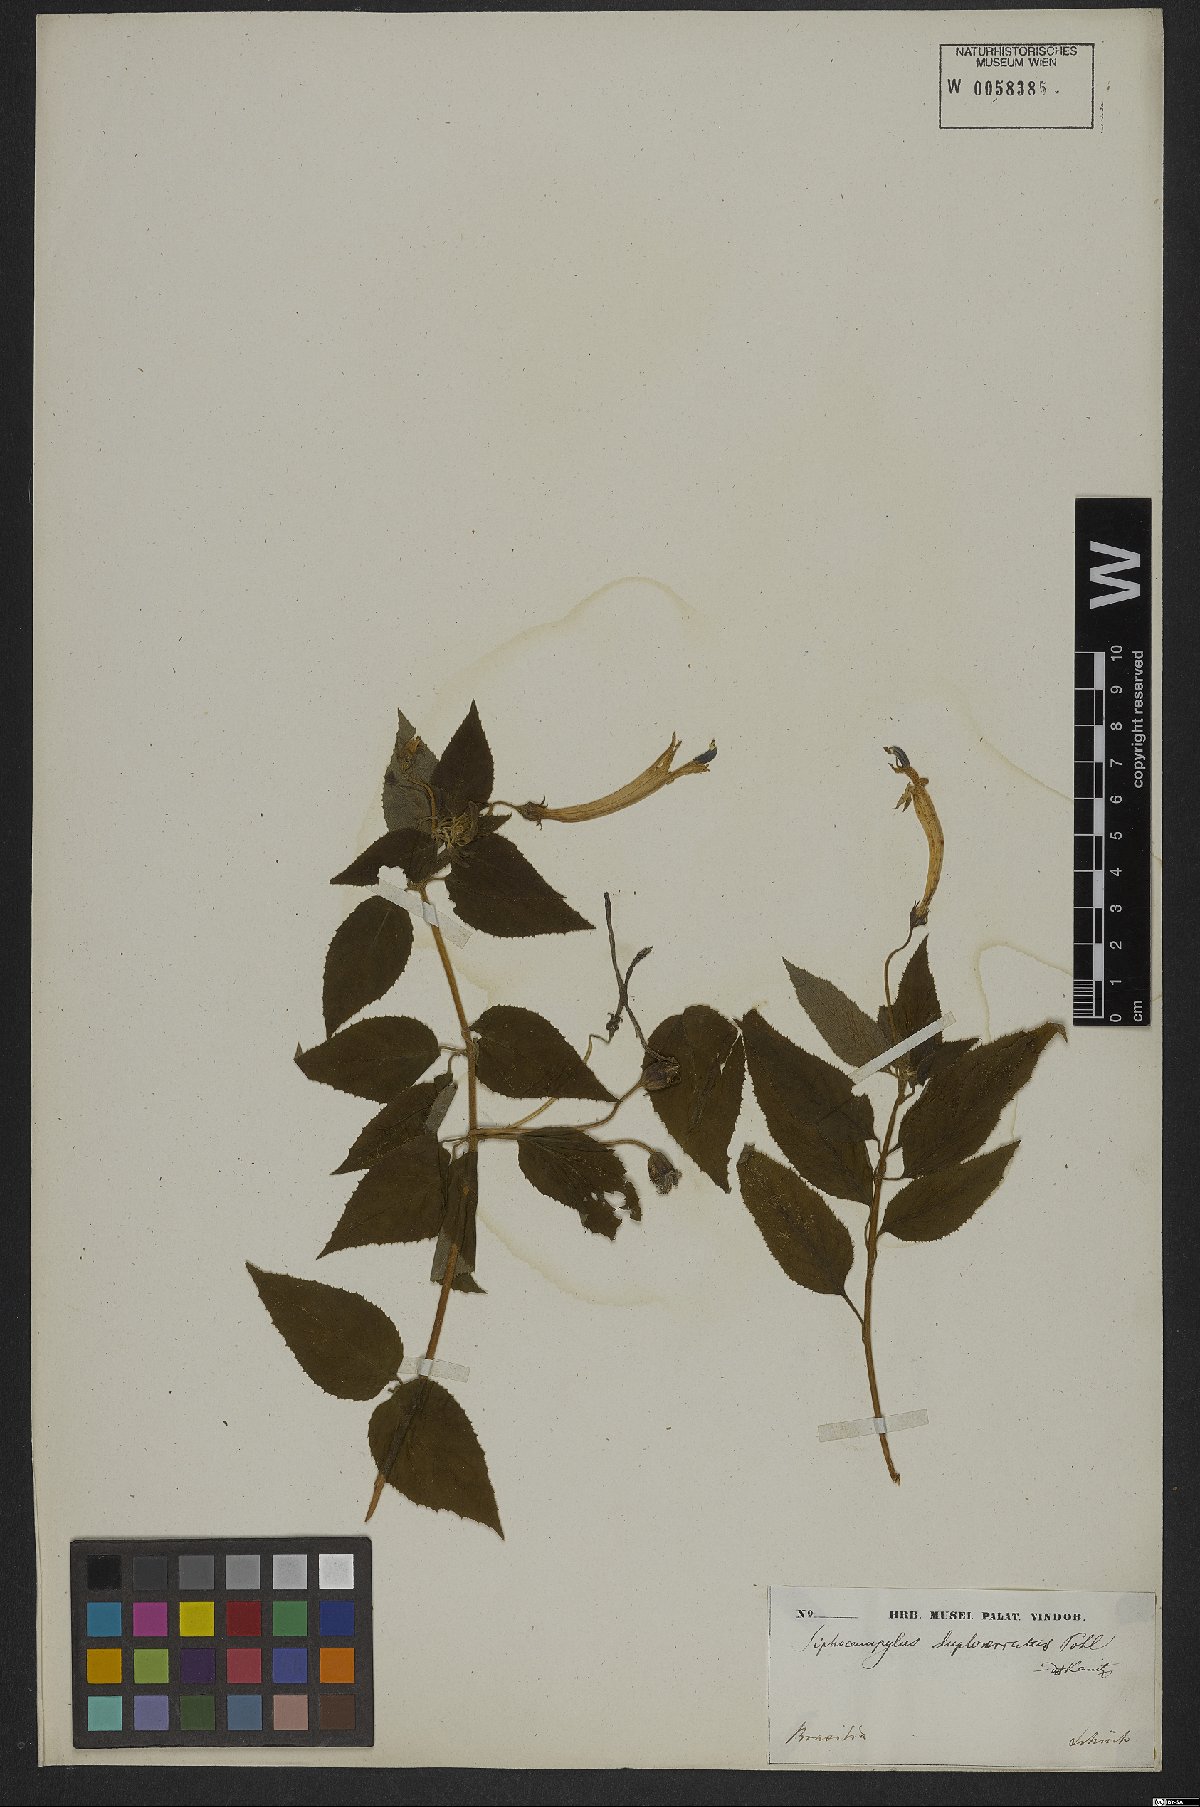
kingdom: Plantae
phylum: Tracheophyta
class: Magnoliopsida
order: Asterales
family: Campanulaceae
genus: Siphocampylus
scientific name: Siphocampylus duploserratus
